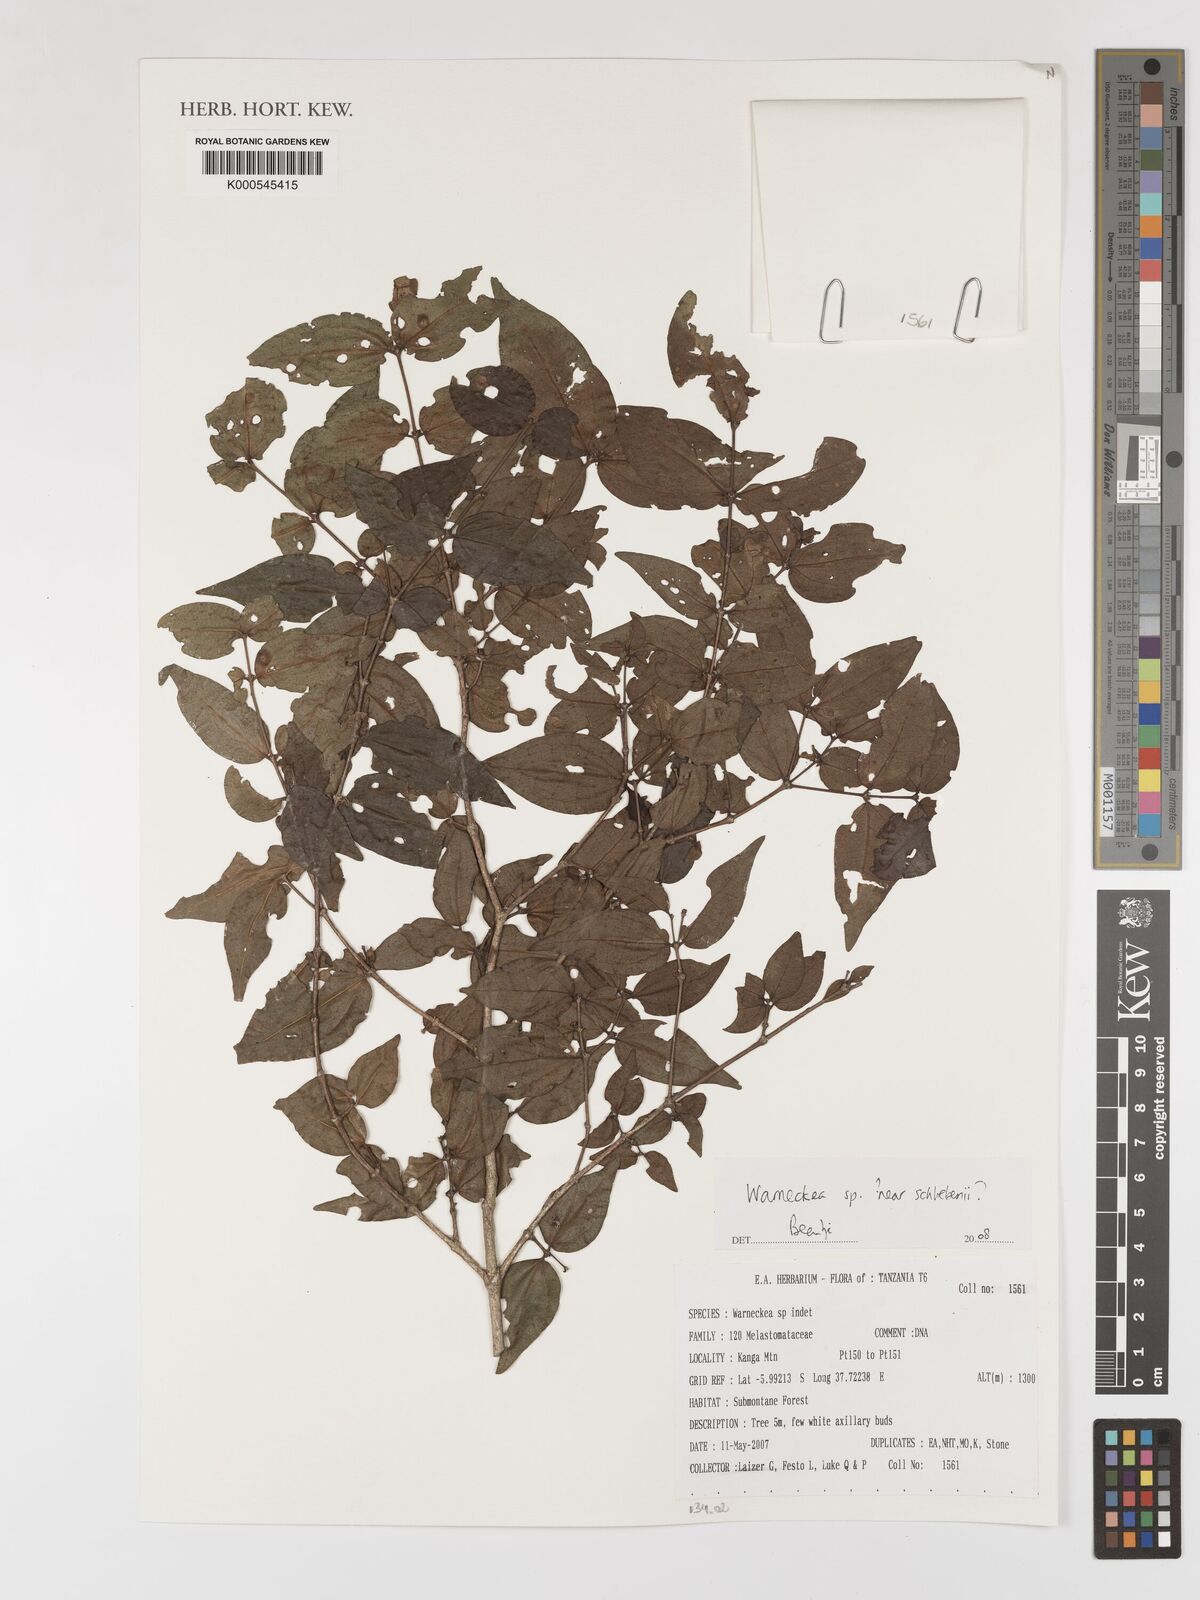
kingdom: Plantae
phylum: Tracheophyta
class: Magnoliopsida
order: Myrtales
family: Melastomataceae
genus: Warneckea
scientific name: Warneckea
